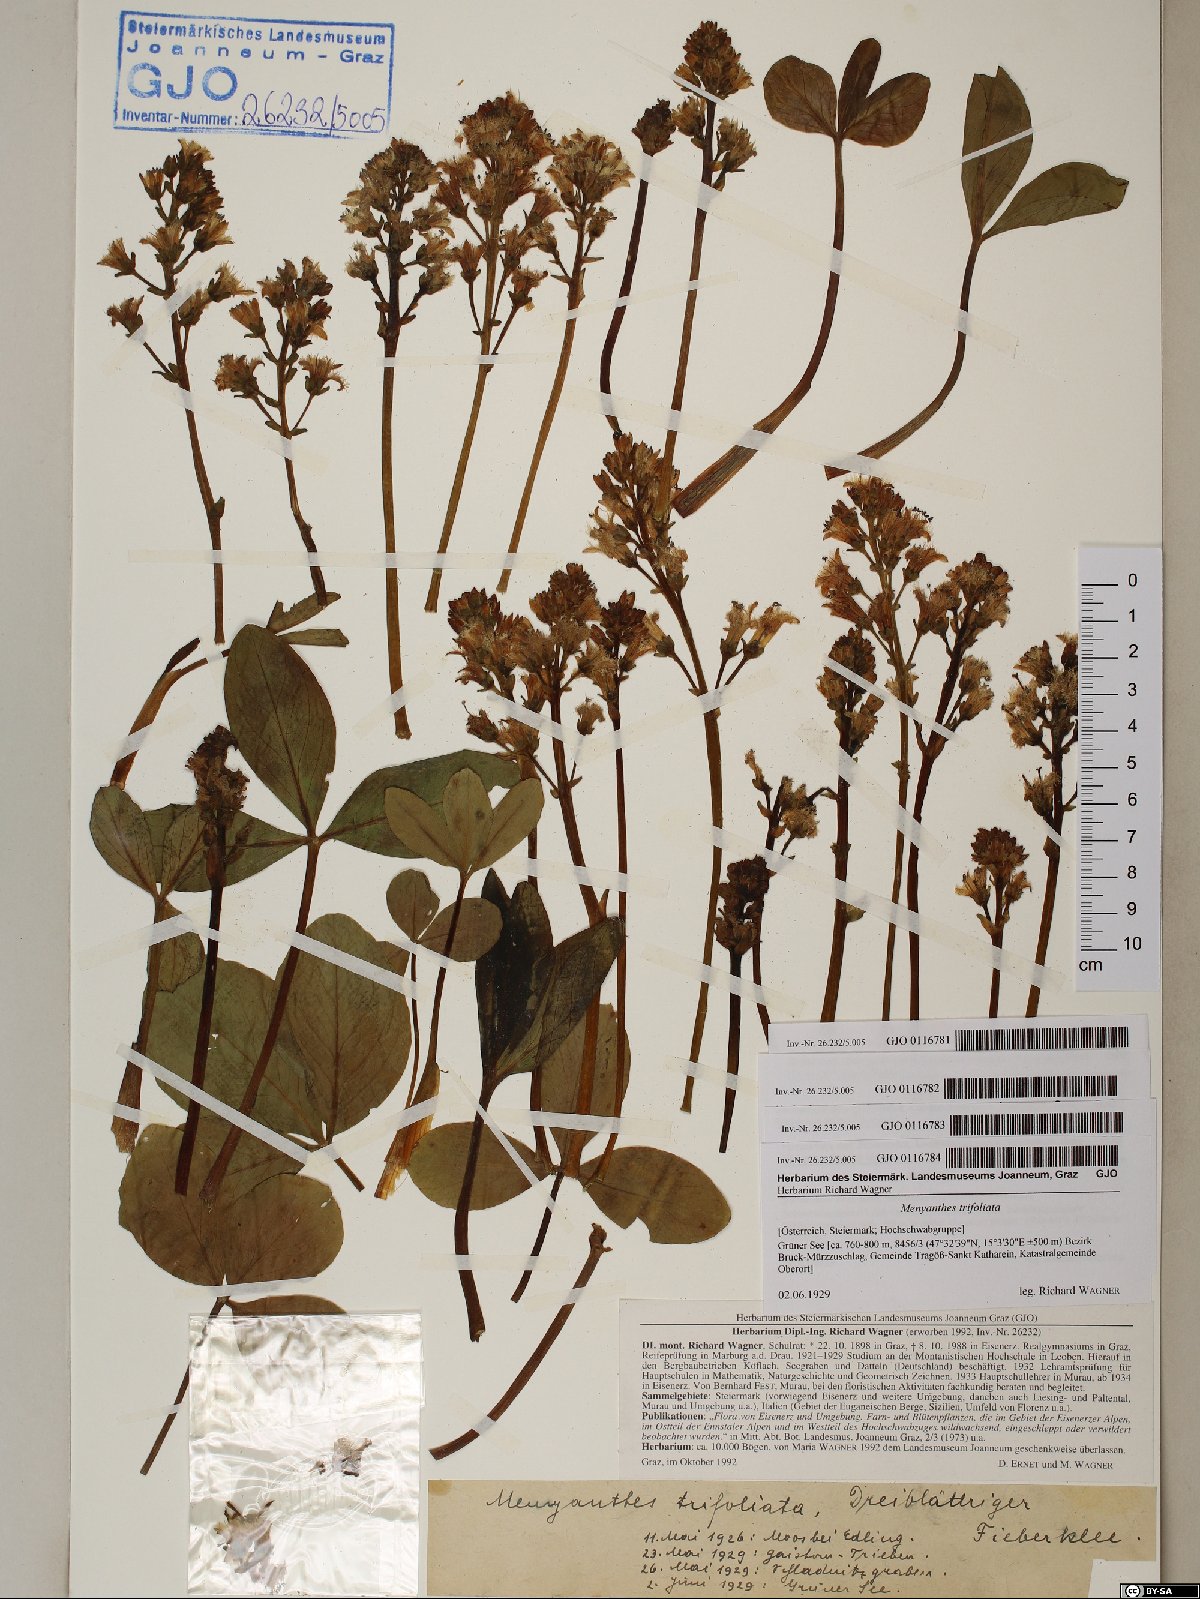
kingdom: Plantae
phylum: Tracheophyta
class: Magnoliopsida
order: Asterales
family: Menyanthaceae
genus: Menyanthes
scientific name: Menyanthes trifoliata
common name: Bogbean
